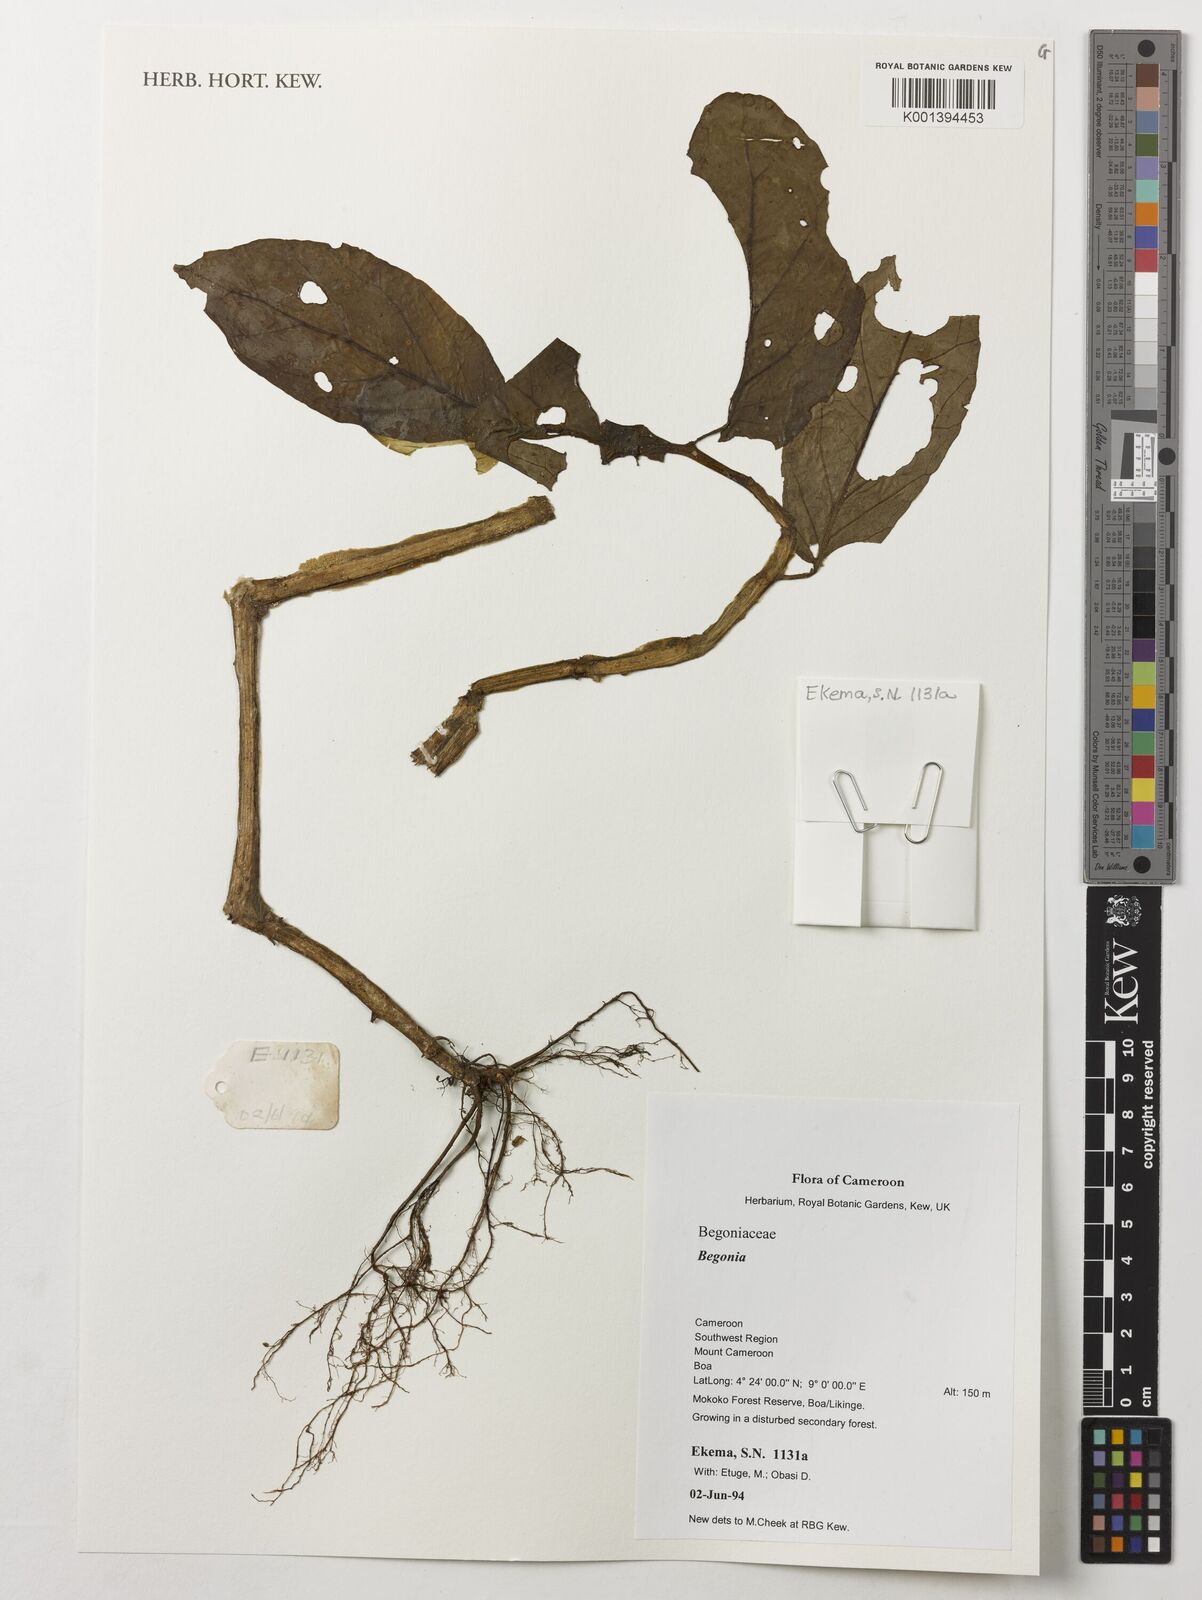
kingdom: Plantae
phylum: Tracheophyta
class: Magnoliopsida
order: Cucurbitales
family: Begoniaceae
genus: Begonia
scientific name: Begonia
